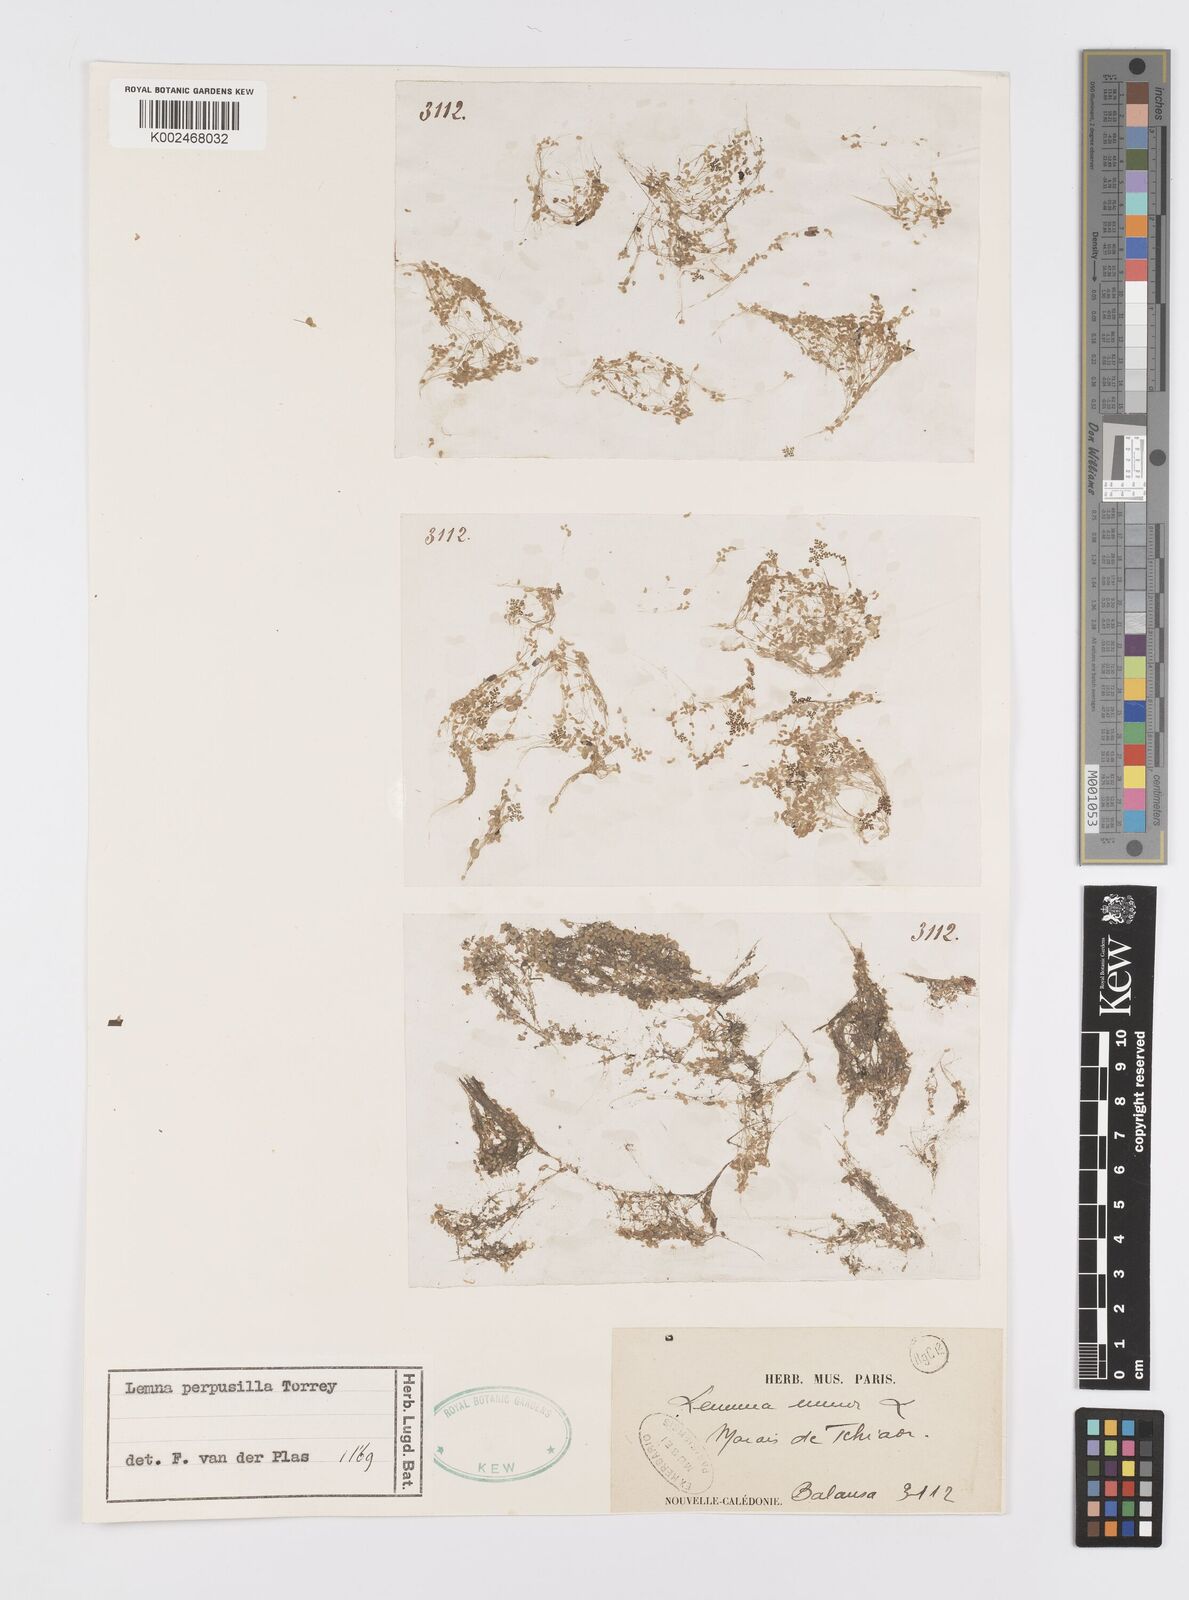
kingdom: Plantae
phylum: Tracheophyta
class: Liliopsida
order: Alismatales
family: Araceae
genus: Lemna
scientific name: Lemna perpusilla
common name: Duckweed
